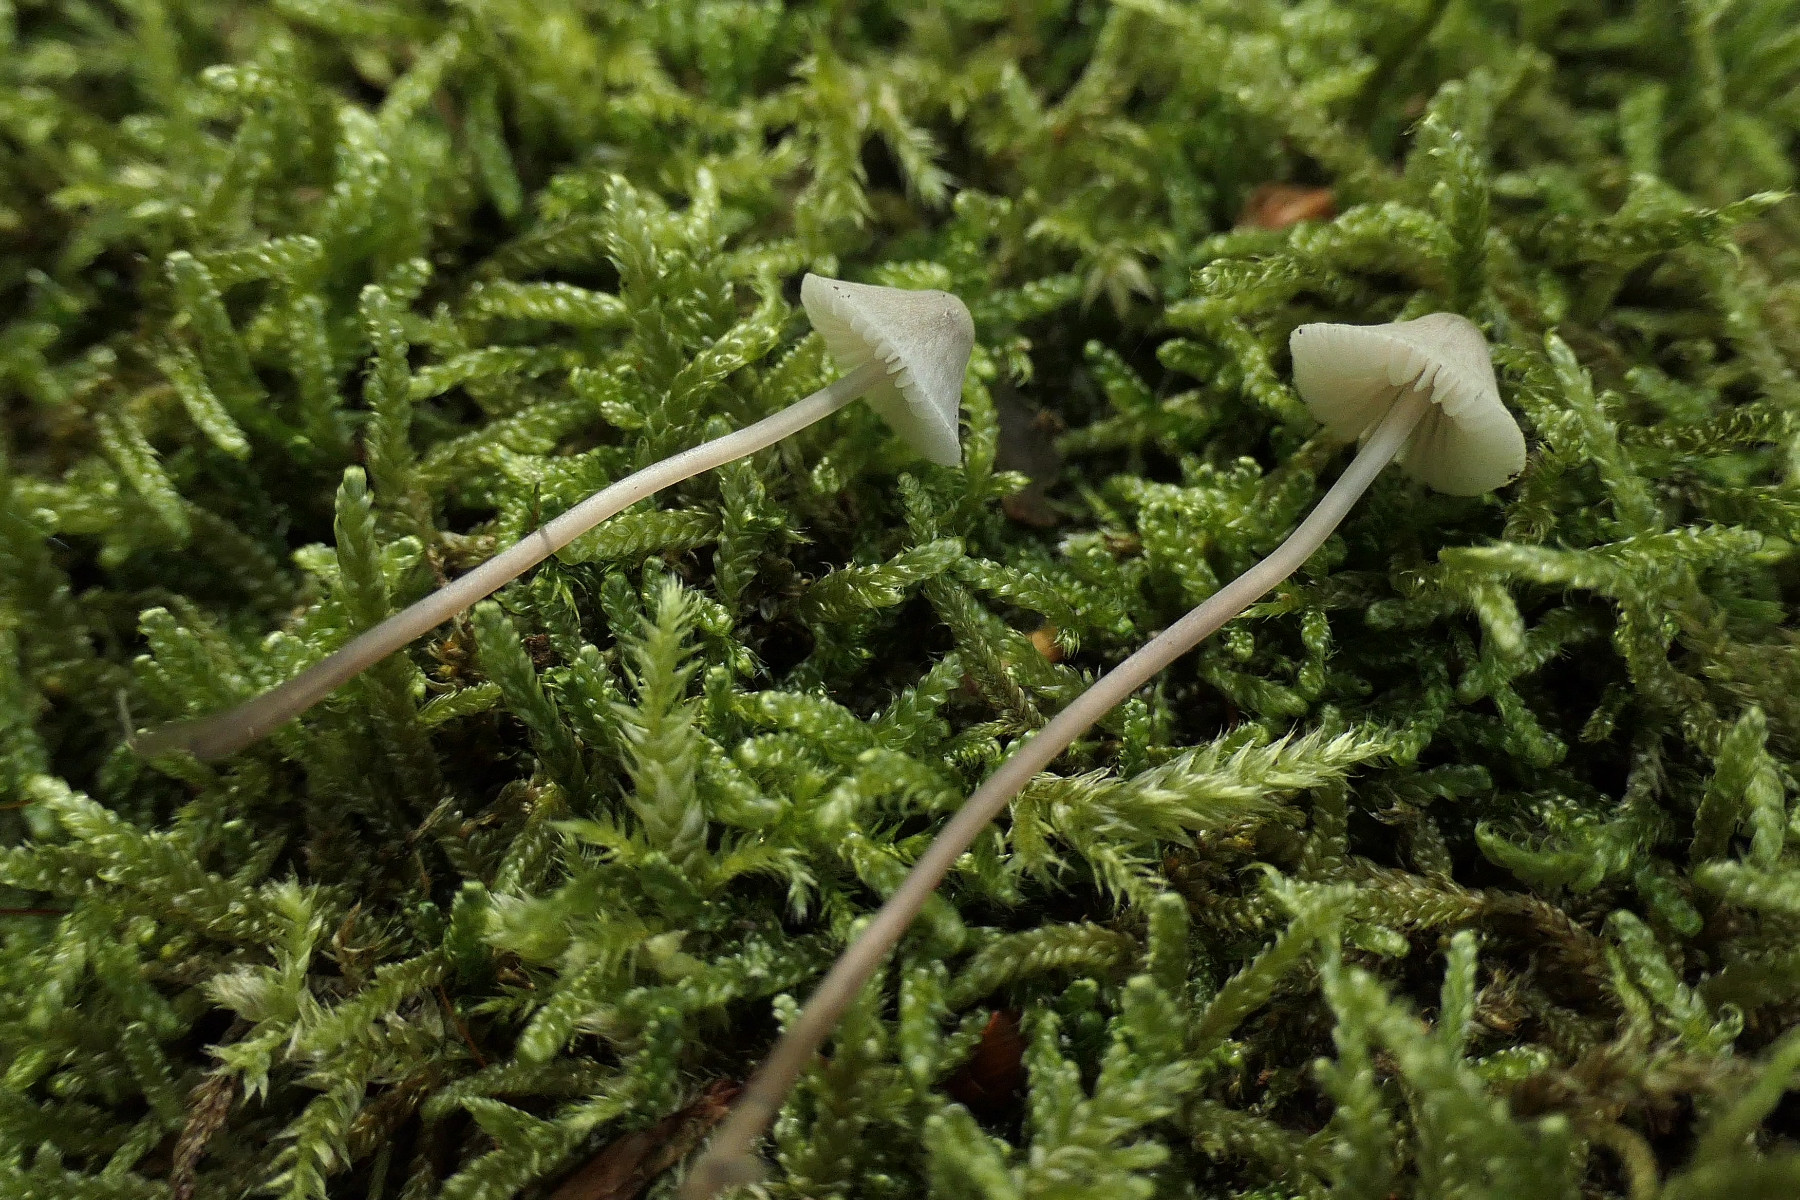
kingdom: Fungi
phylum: Basidiomycota
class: Agaricomycetes
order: Agaricales
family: Mycenaceae
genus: Mycena
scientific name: Mycena flavescens
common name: grågul huesvamp
